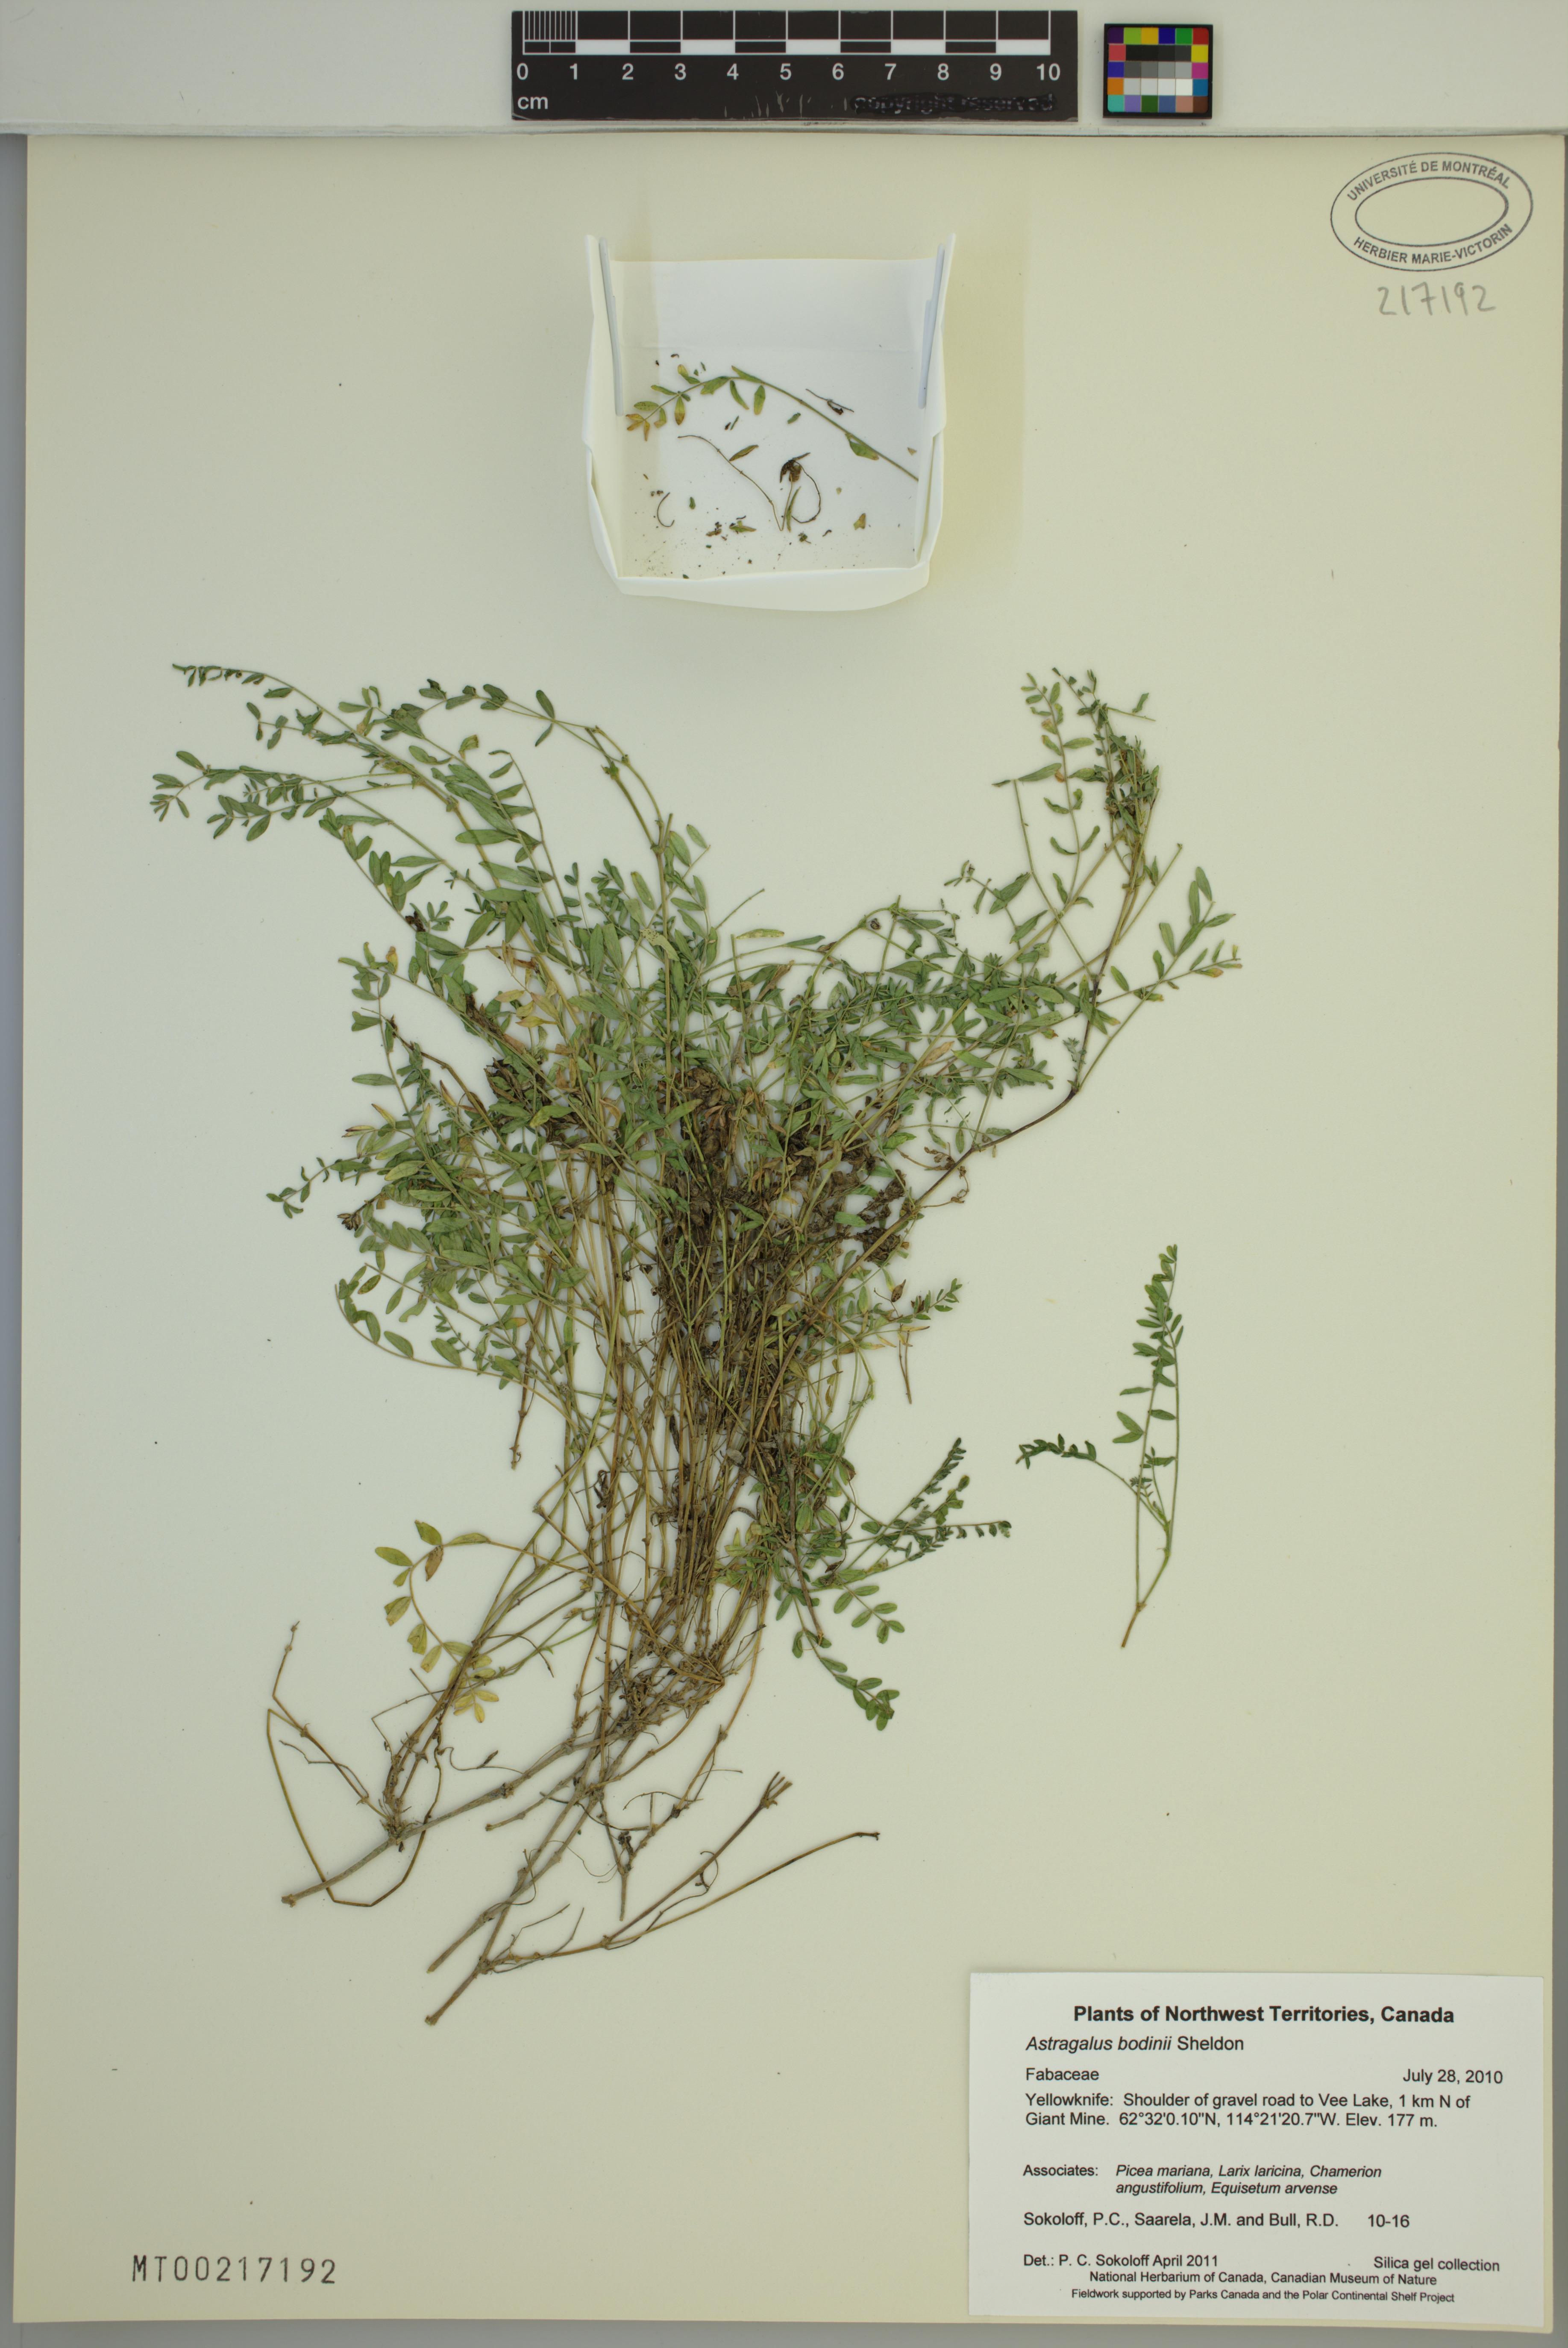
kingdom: Plantae
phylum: Tracheophyta
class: Magnoliopsida
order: Fabales
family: Fabaceae
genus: Astragalus
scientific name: Astragalus bodinii
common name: Bodin's milk-vetch
